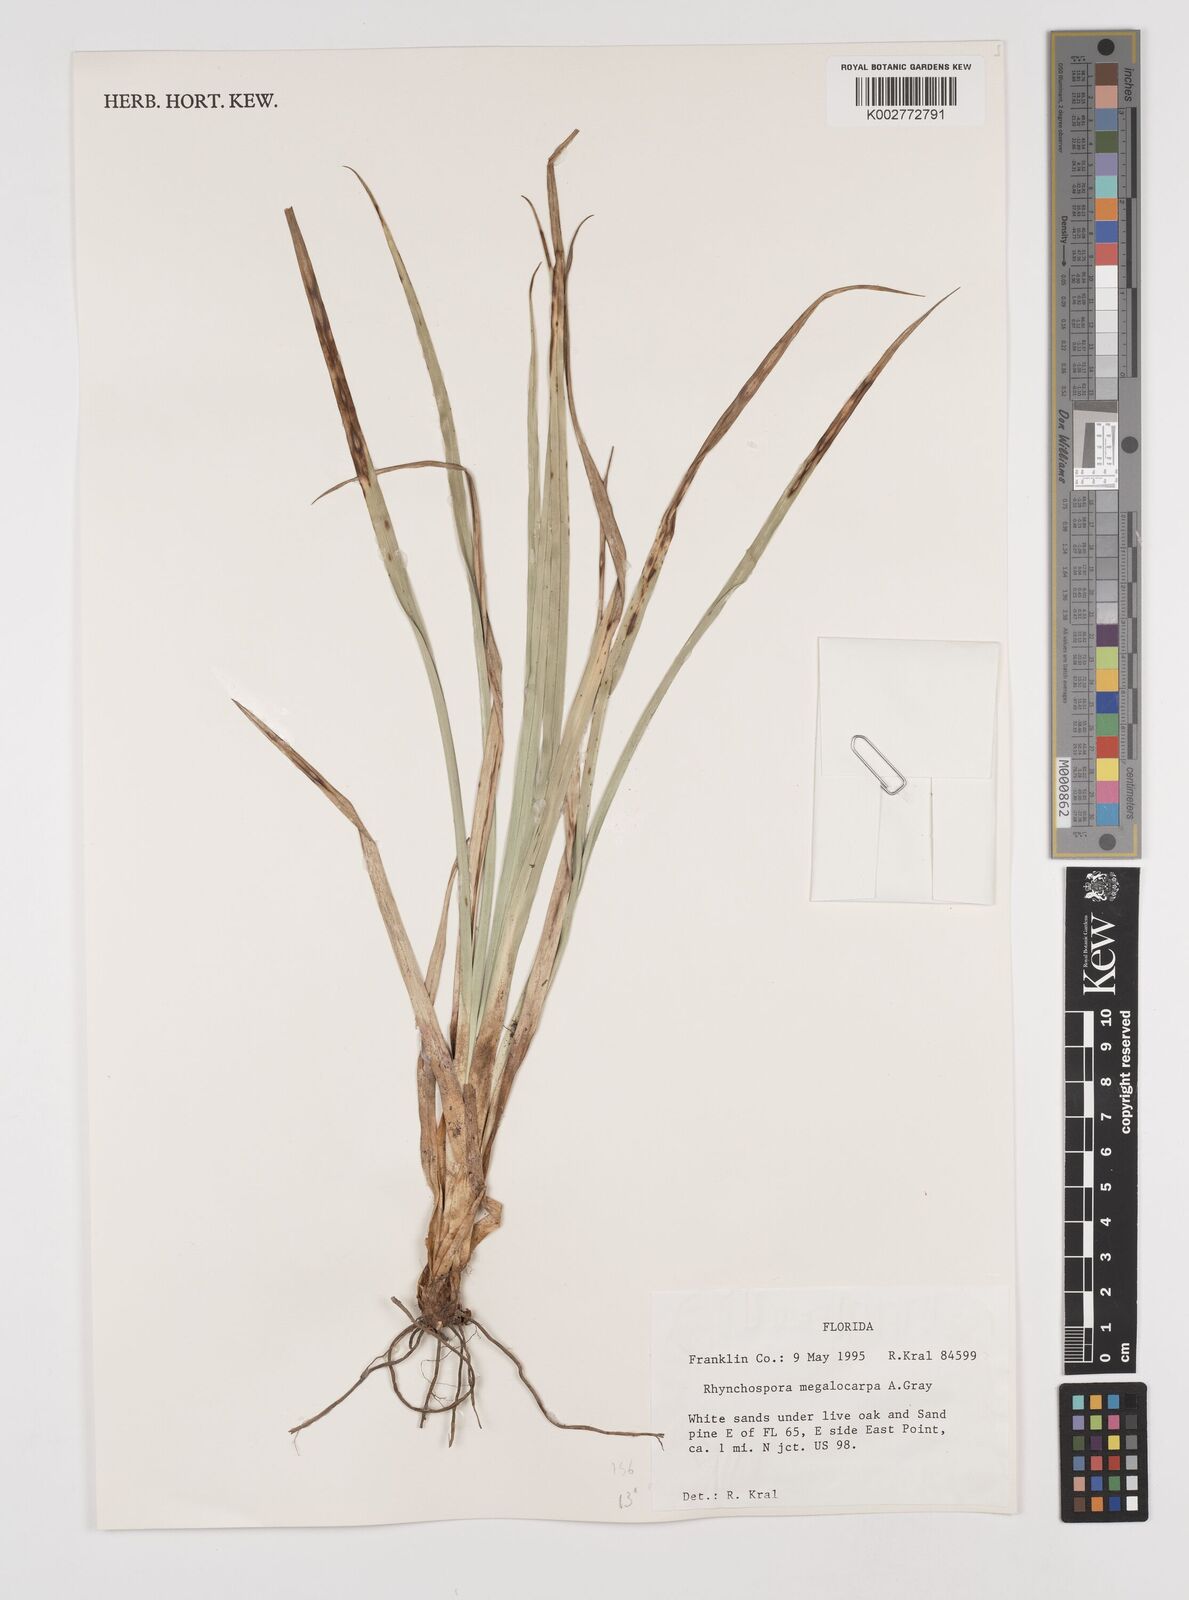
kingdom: Plantae
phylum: Tracheophyta
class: Liliopsida
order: Poales
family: Cyperaceae
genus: Rhynchospora
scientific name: Rhynchospora megalocarpa
